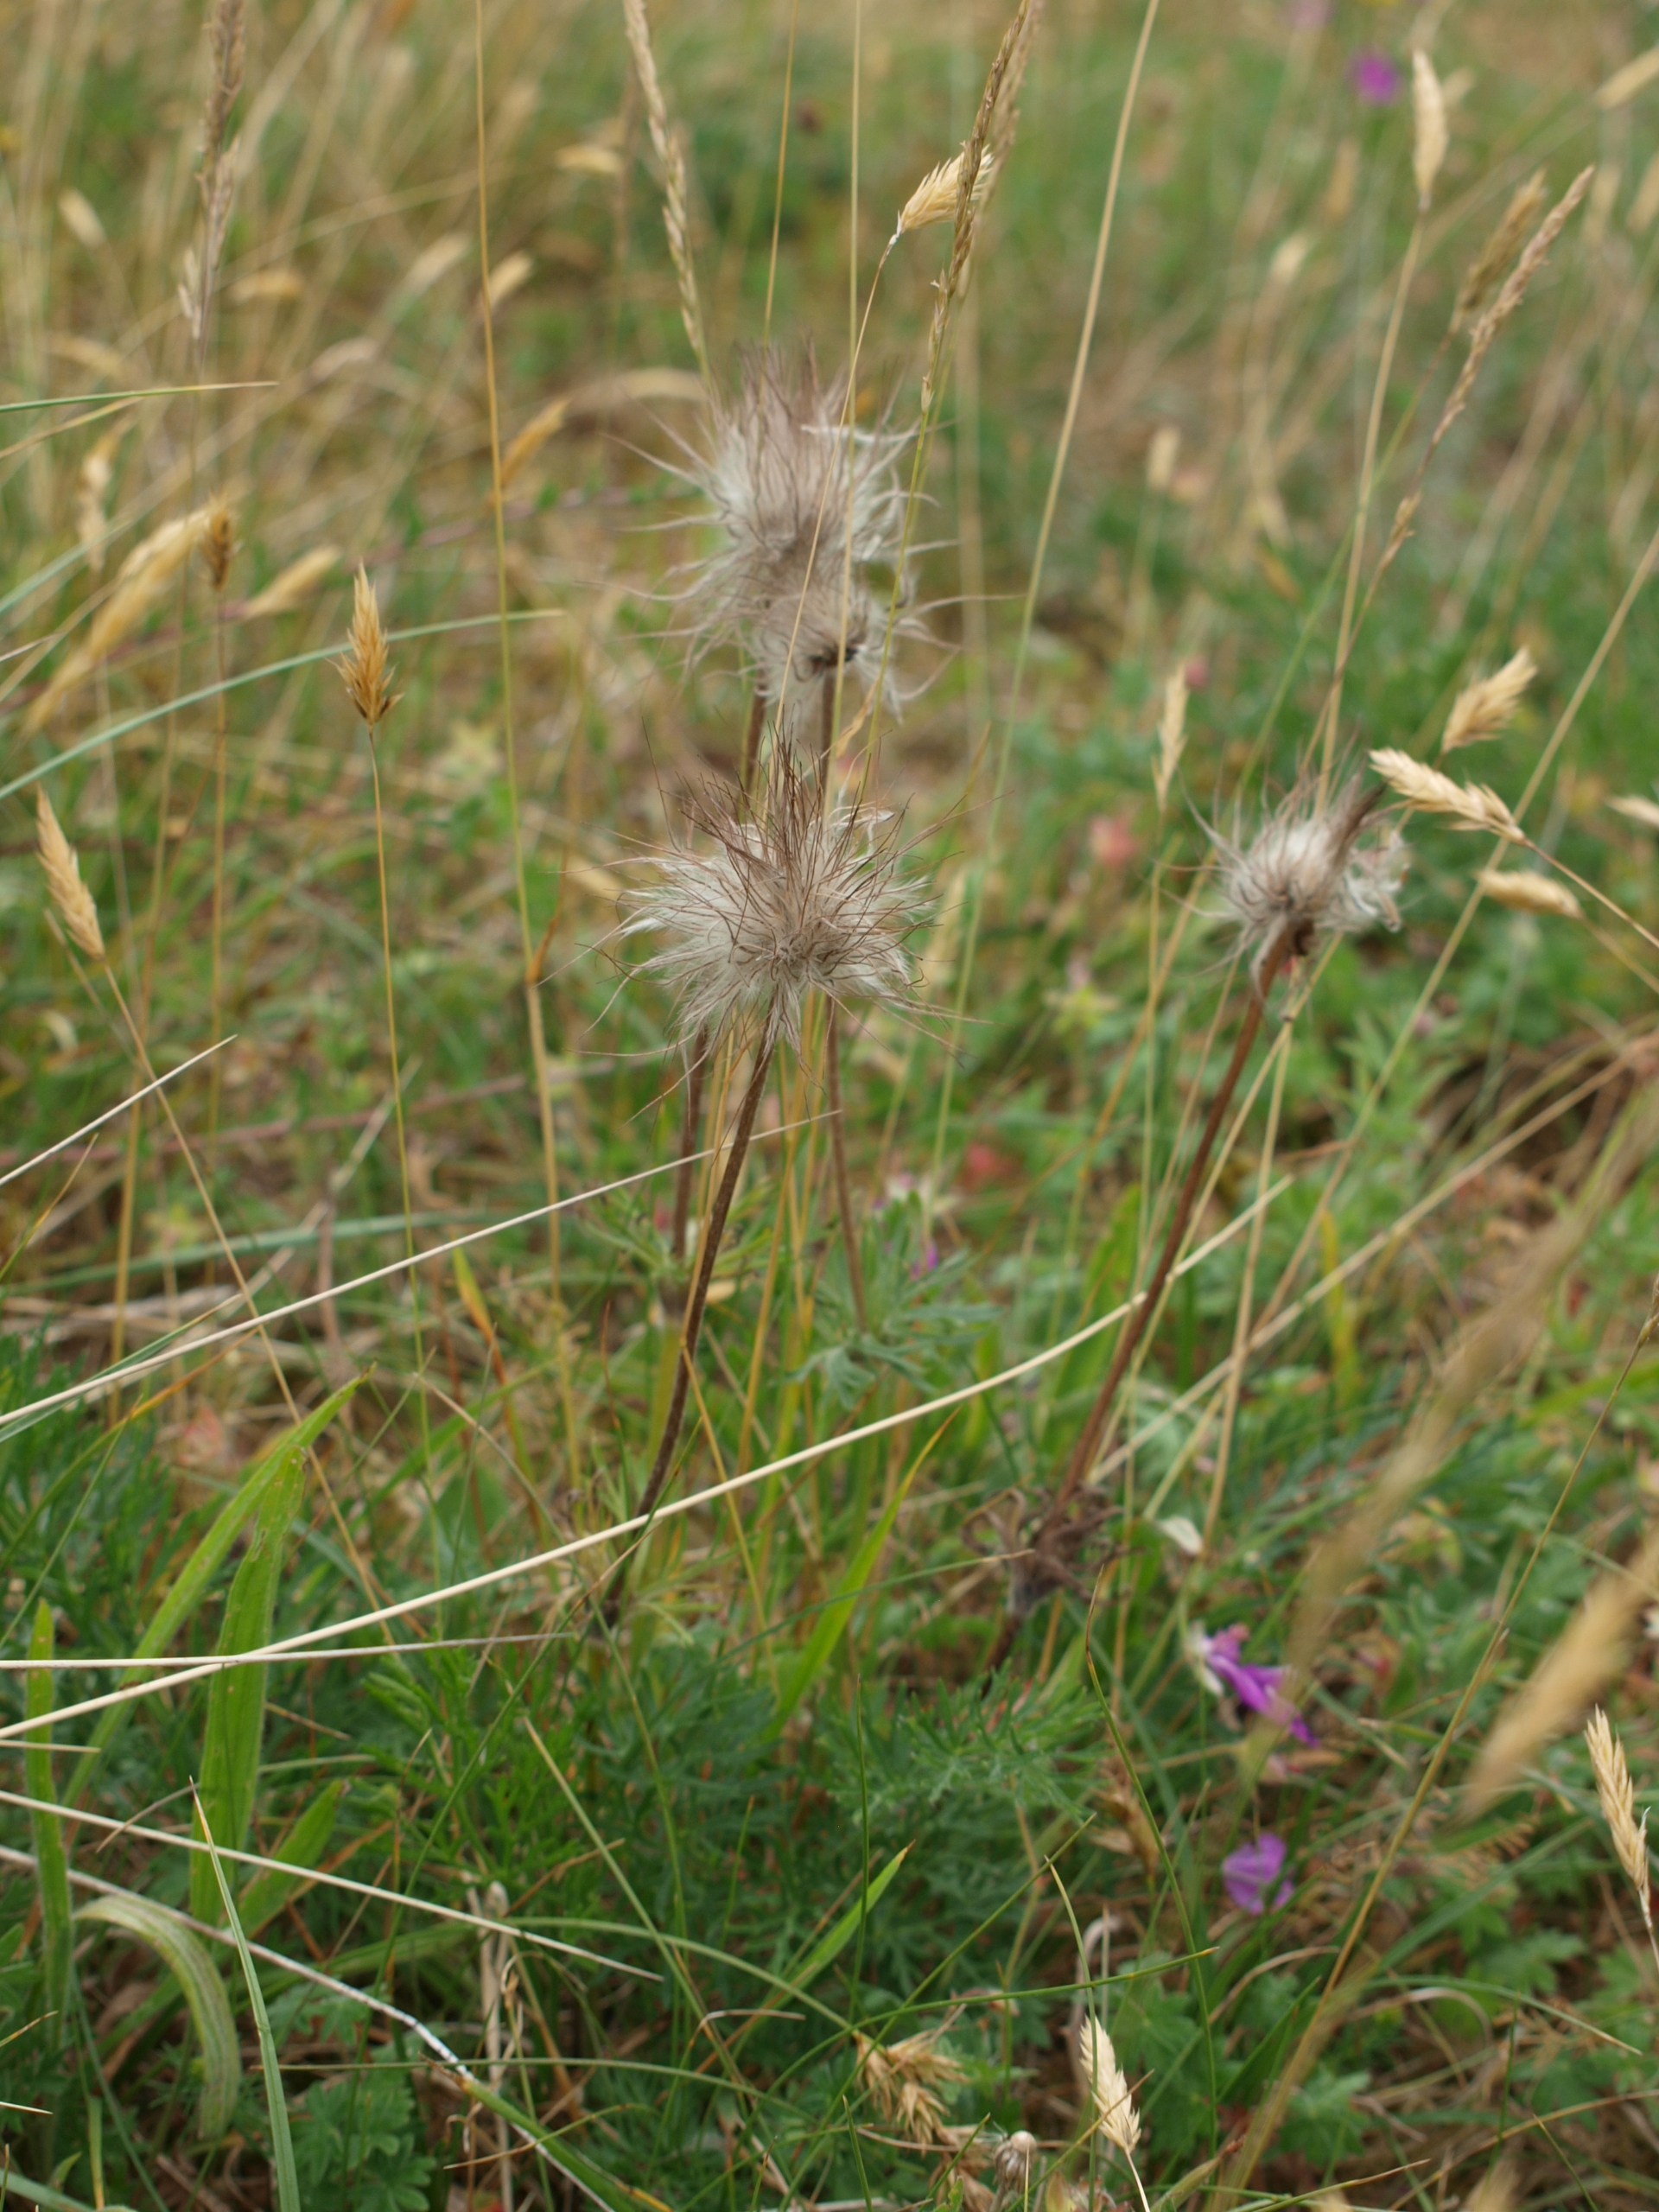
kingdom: Plantae
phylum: Tracheophyta
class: Magnoliopsida
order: Ranunculales
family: Ranunculaceae
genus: Pulsatilla
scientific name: Pulsatilla pratensis
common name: Nikkende kobjælde
